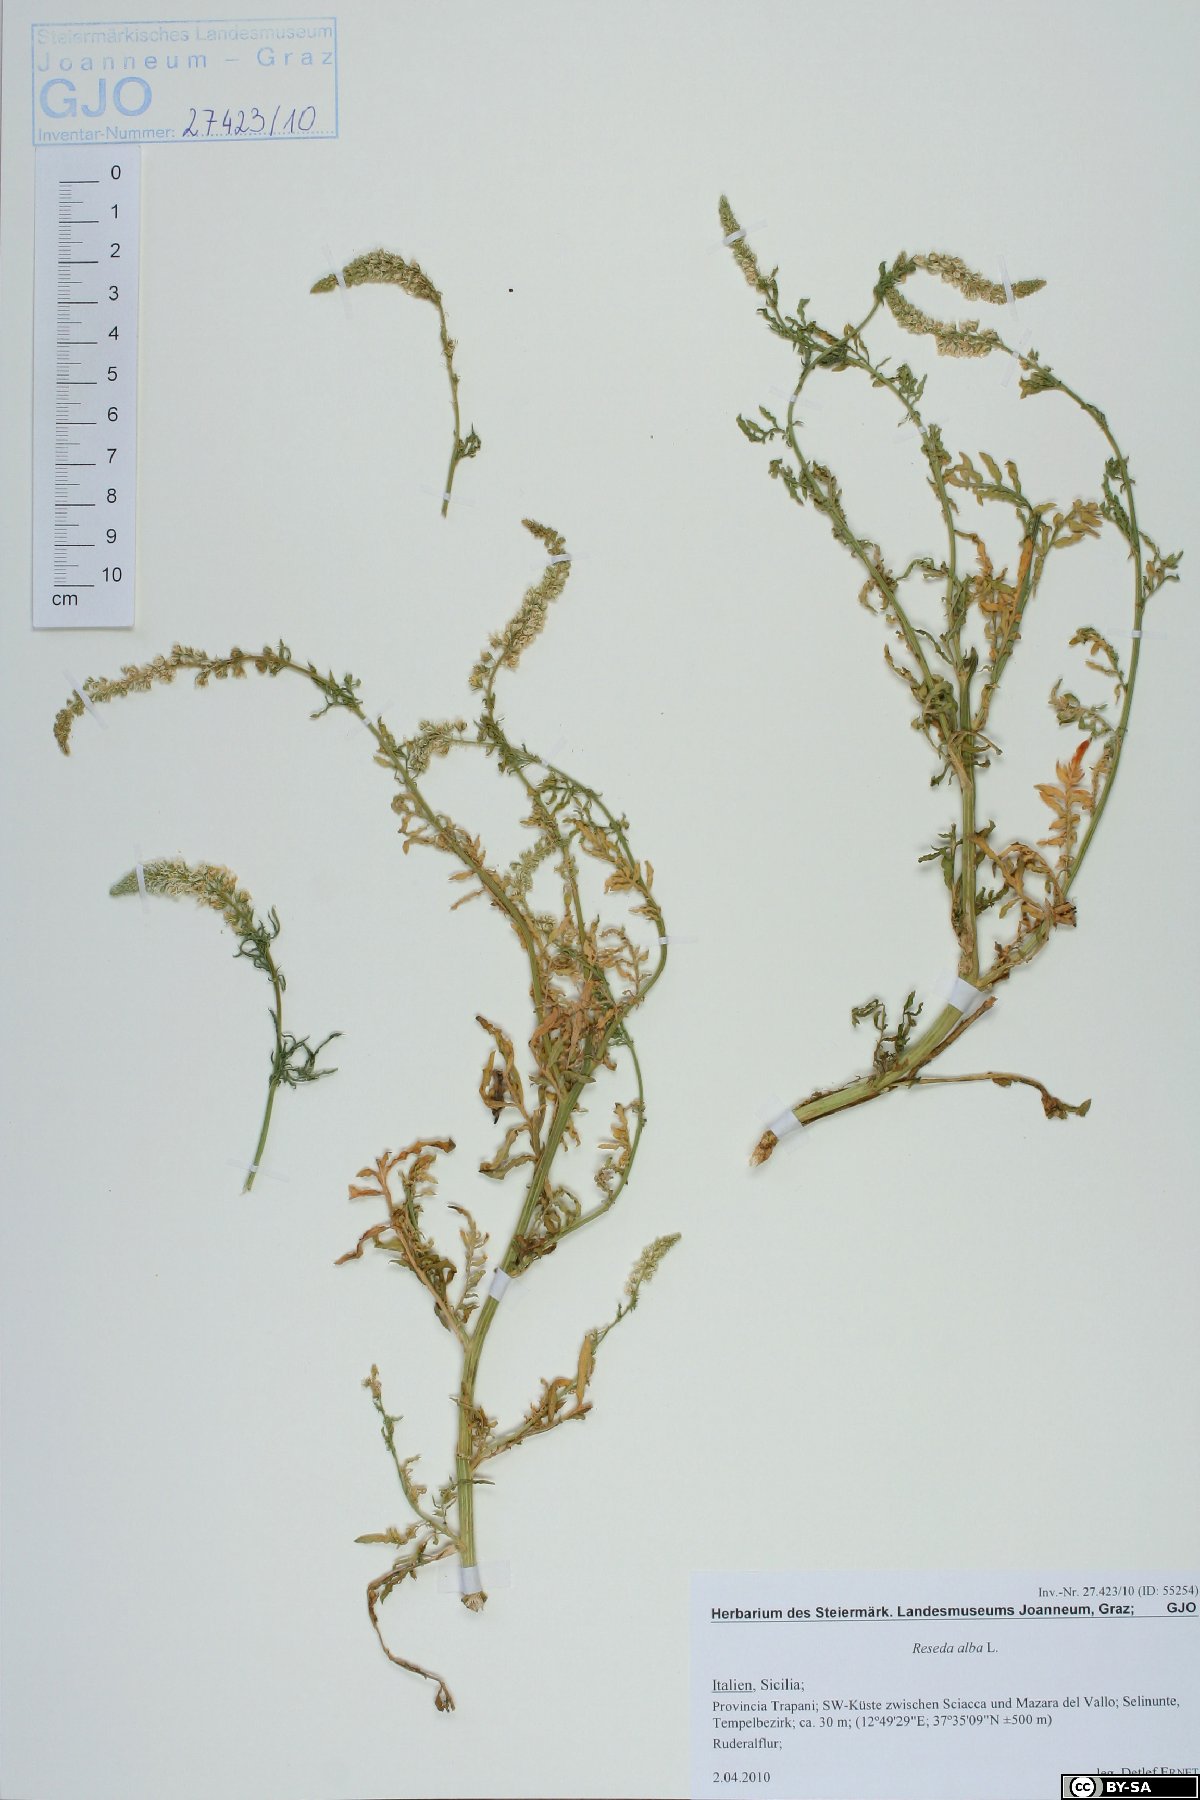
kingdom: Plantae
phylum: Tracheophyta
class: Magnoliopsida
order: Brassicales
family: Resedaceae
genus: Reseda
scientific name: Reseda alba
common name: White mignonette
